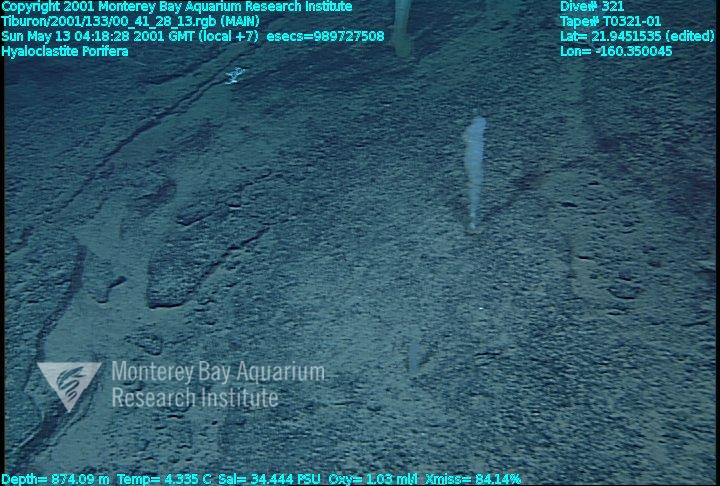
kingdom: Animalia
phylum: Porifera
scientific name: Porifera
